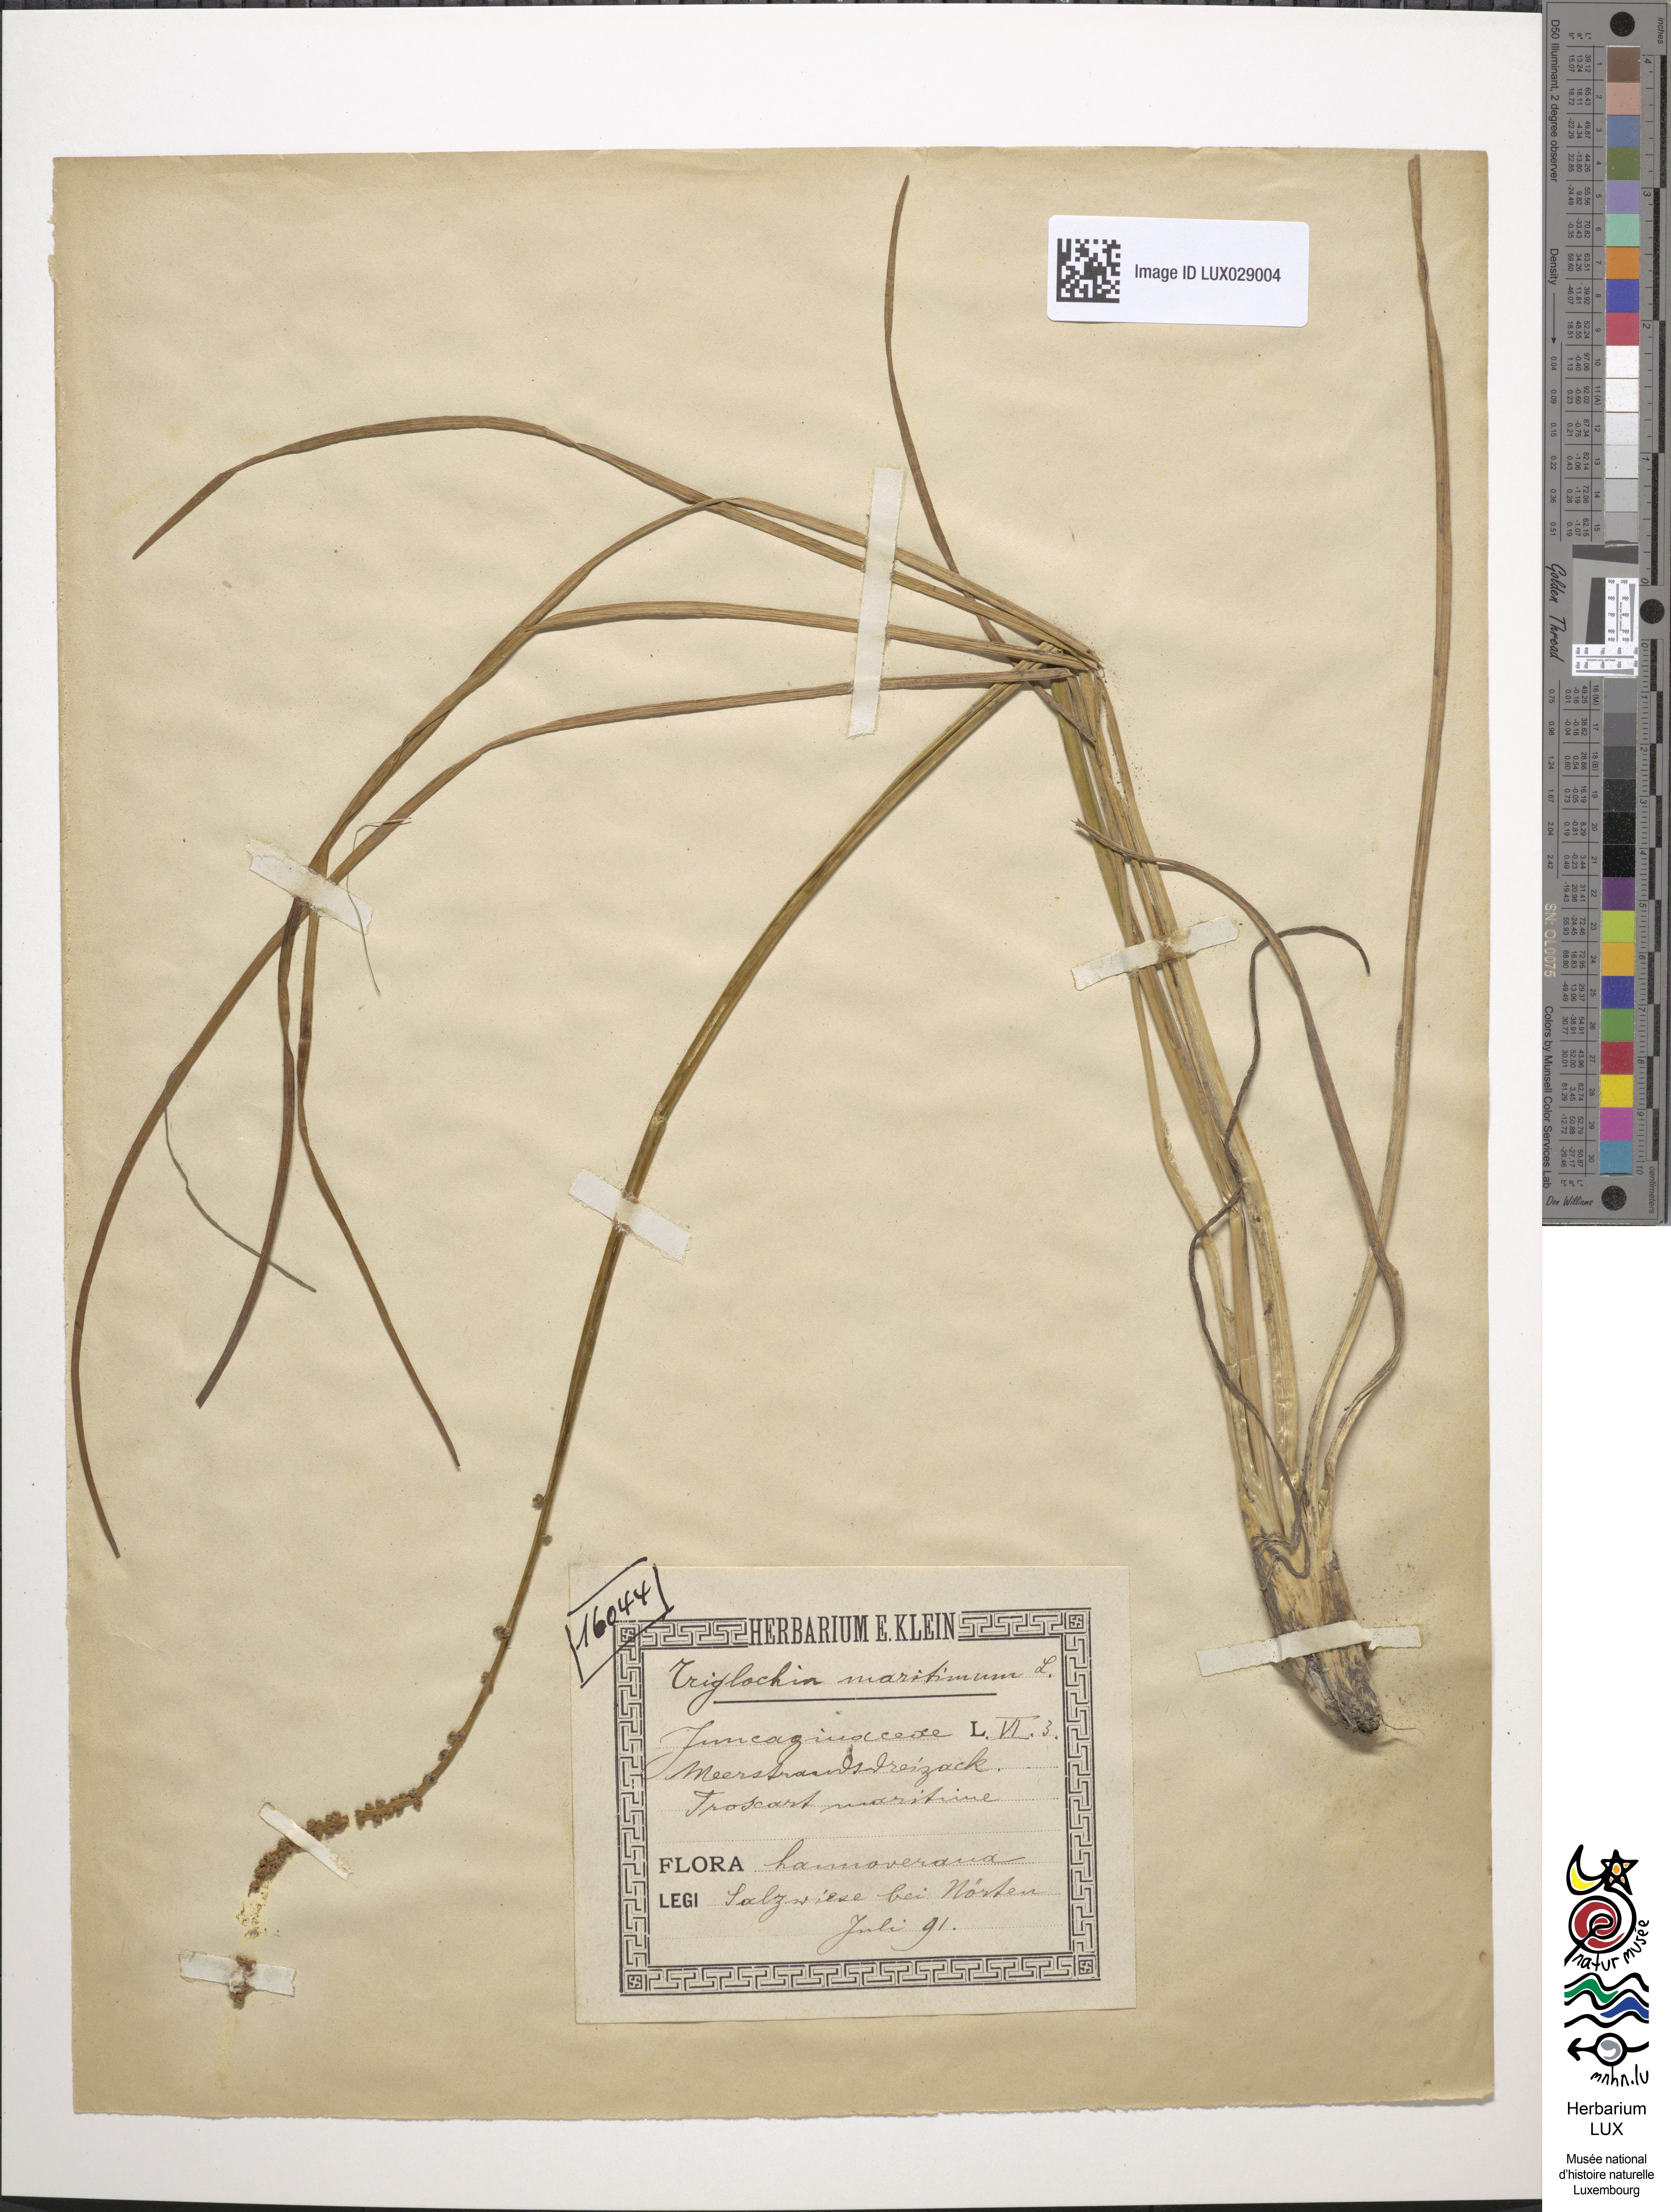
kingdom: Plantae
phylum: Tracheophyta
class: Liliopsida
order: Alismatales
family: Juncaginaceae
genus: Triglochin
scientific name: Triglochin maritima
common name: Sea arrowgrass
